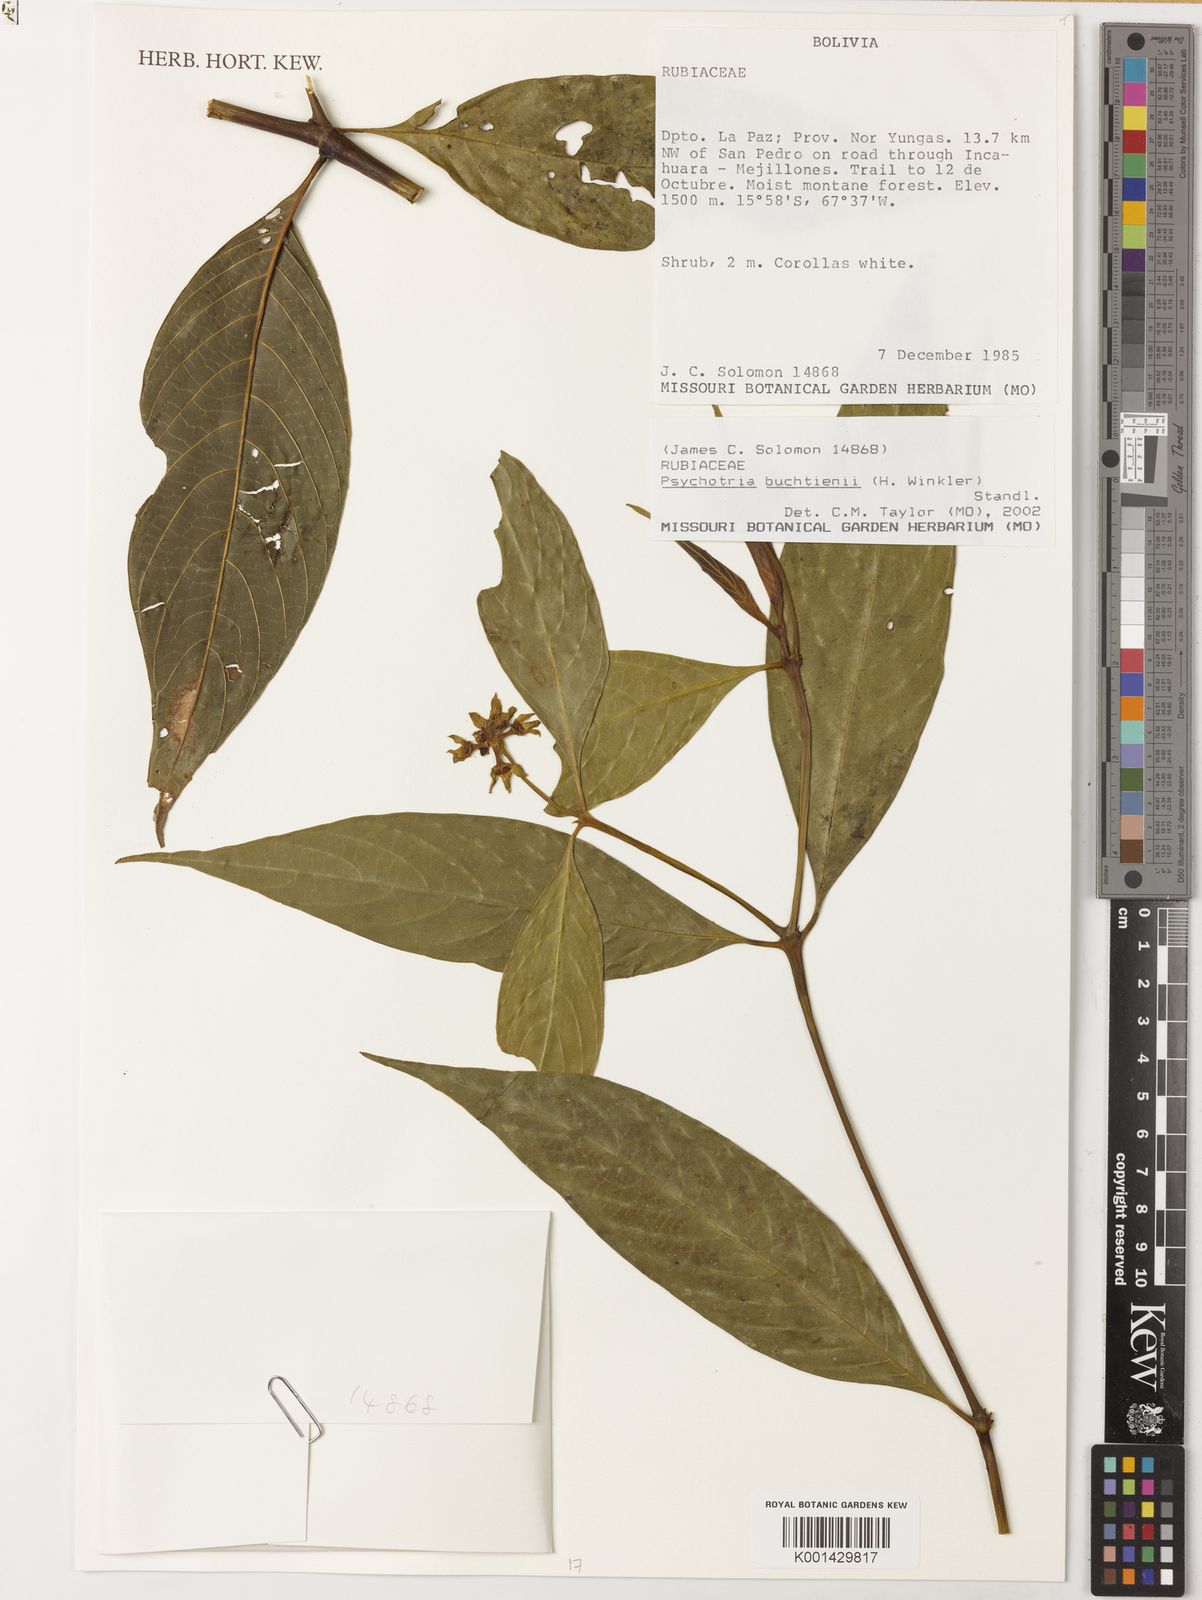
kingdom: Plantae
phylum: Tracheophyta
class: Magnoliopsida
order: Gentianales
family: Rubiaceae
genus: Palicourea
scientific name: Palicourea winkleri
